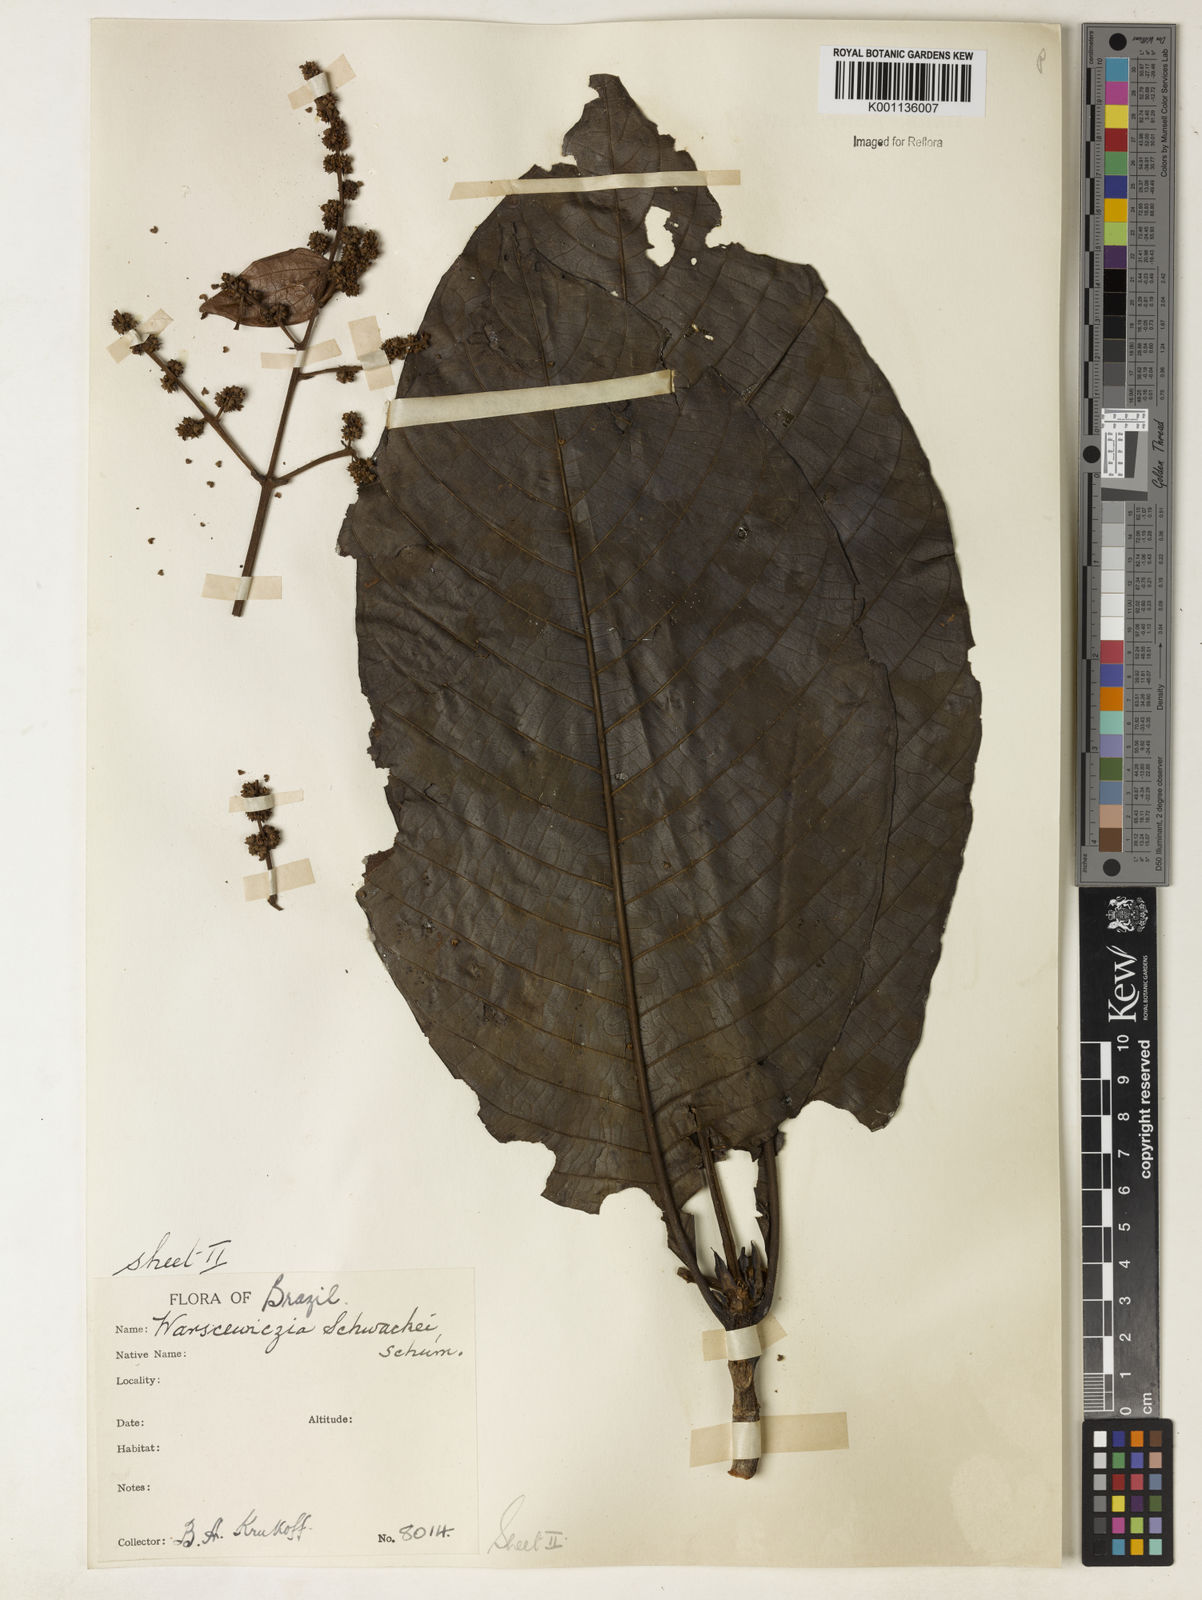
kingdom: Plantae
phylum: Tracheophyta
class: Magnoliopsida
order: Gentianales
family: Rubiaceae
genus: Warszewiczia
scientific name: Warszewiczia schwackei
